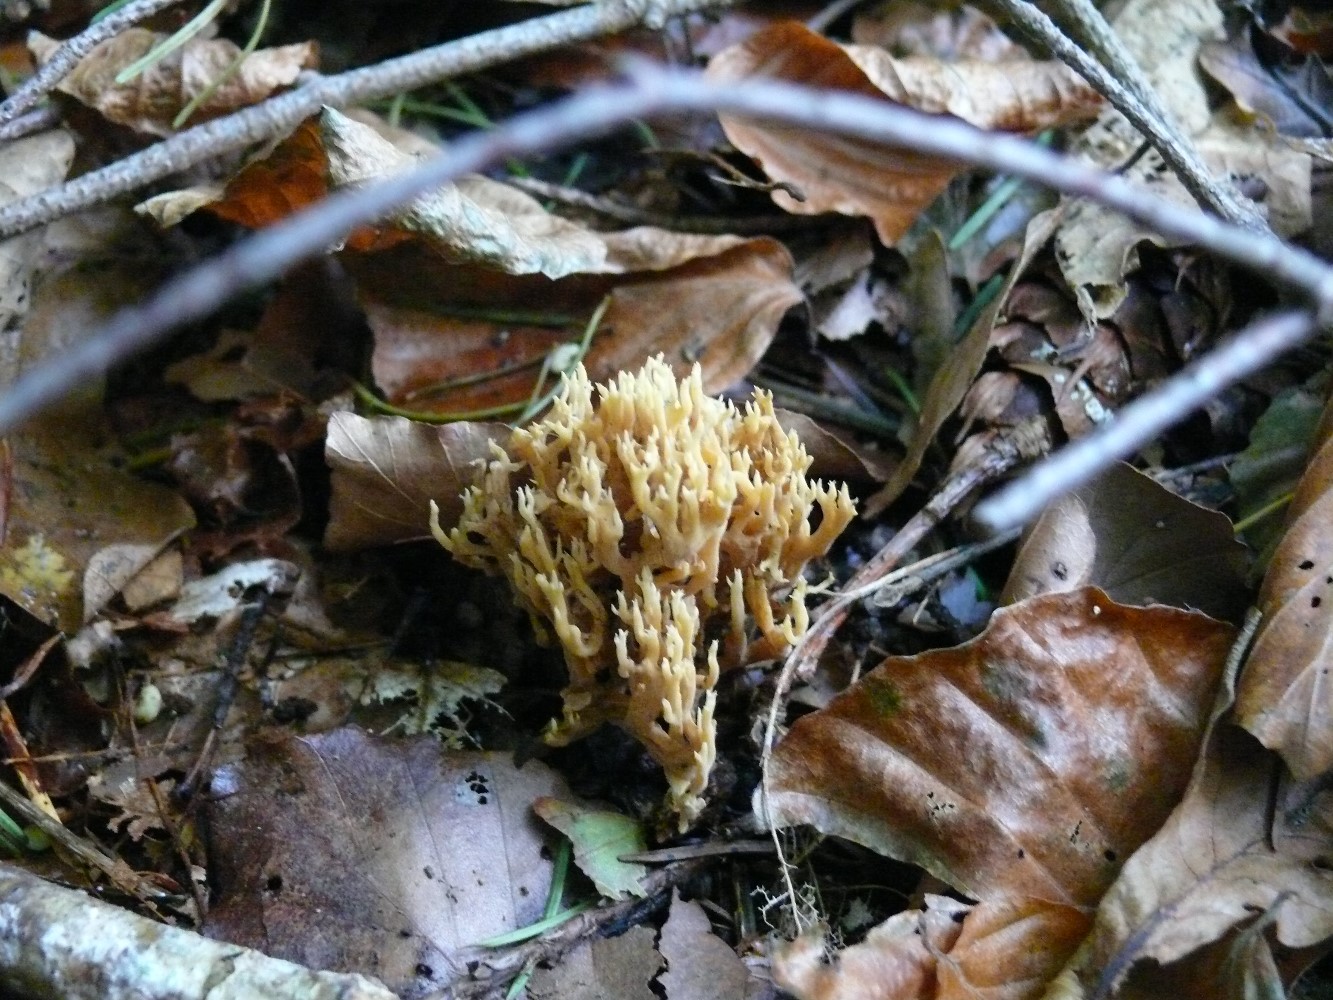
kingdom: Fungi
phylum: Basidiomycota
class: Agaricomycetes
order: Gomphales
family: Gomphaceae
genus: Ramaria
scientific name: Ramaria stricta
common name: rank koralsvamp
